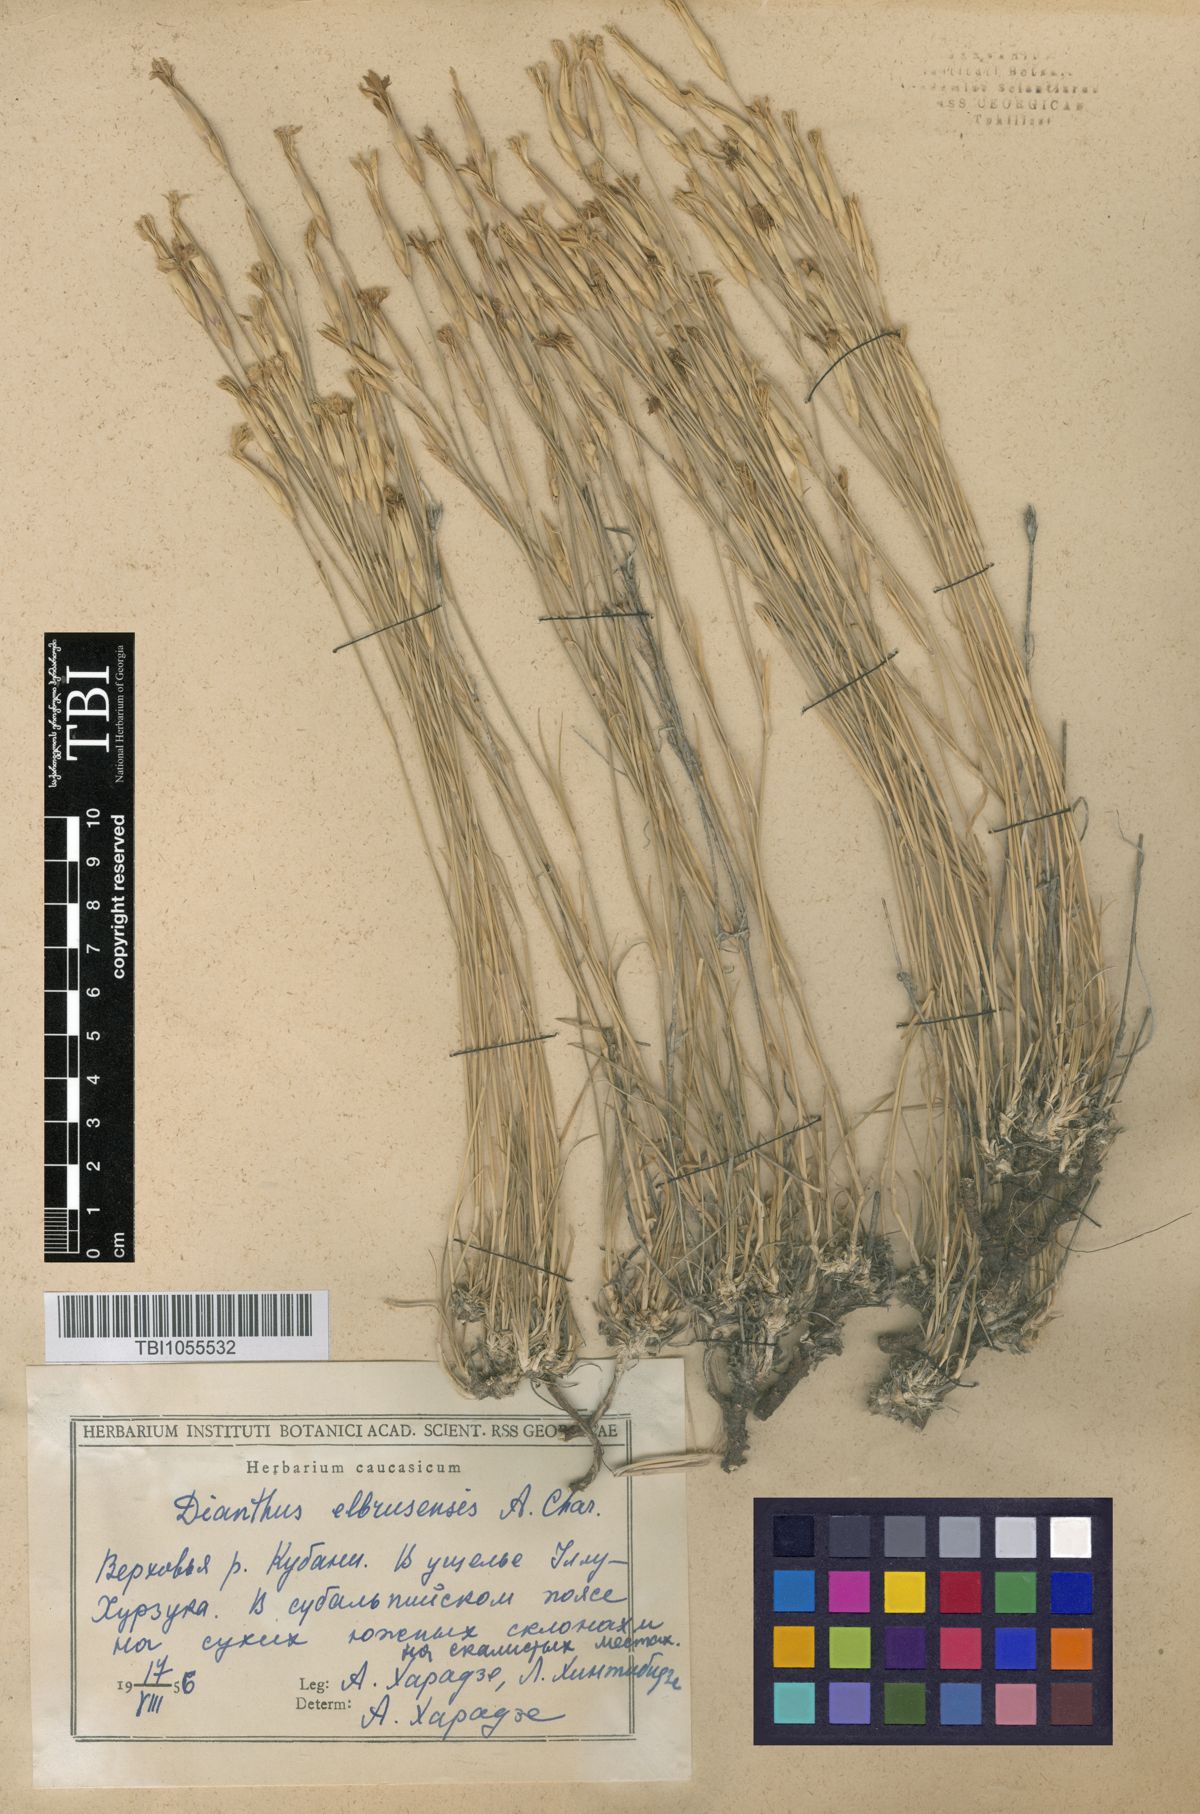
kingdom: Plantae
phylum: Tracheophyta
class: Magnoliopsida
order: Caryophyllales
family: Caryophyllaceae
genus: Dianthus
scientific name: Dianthus
